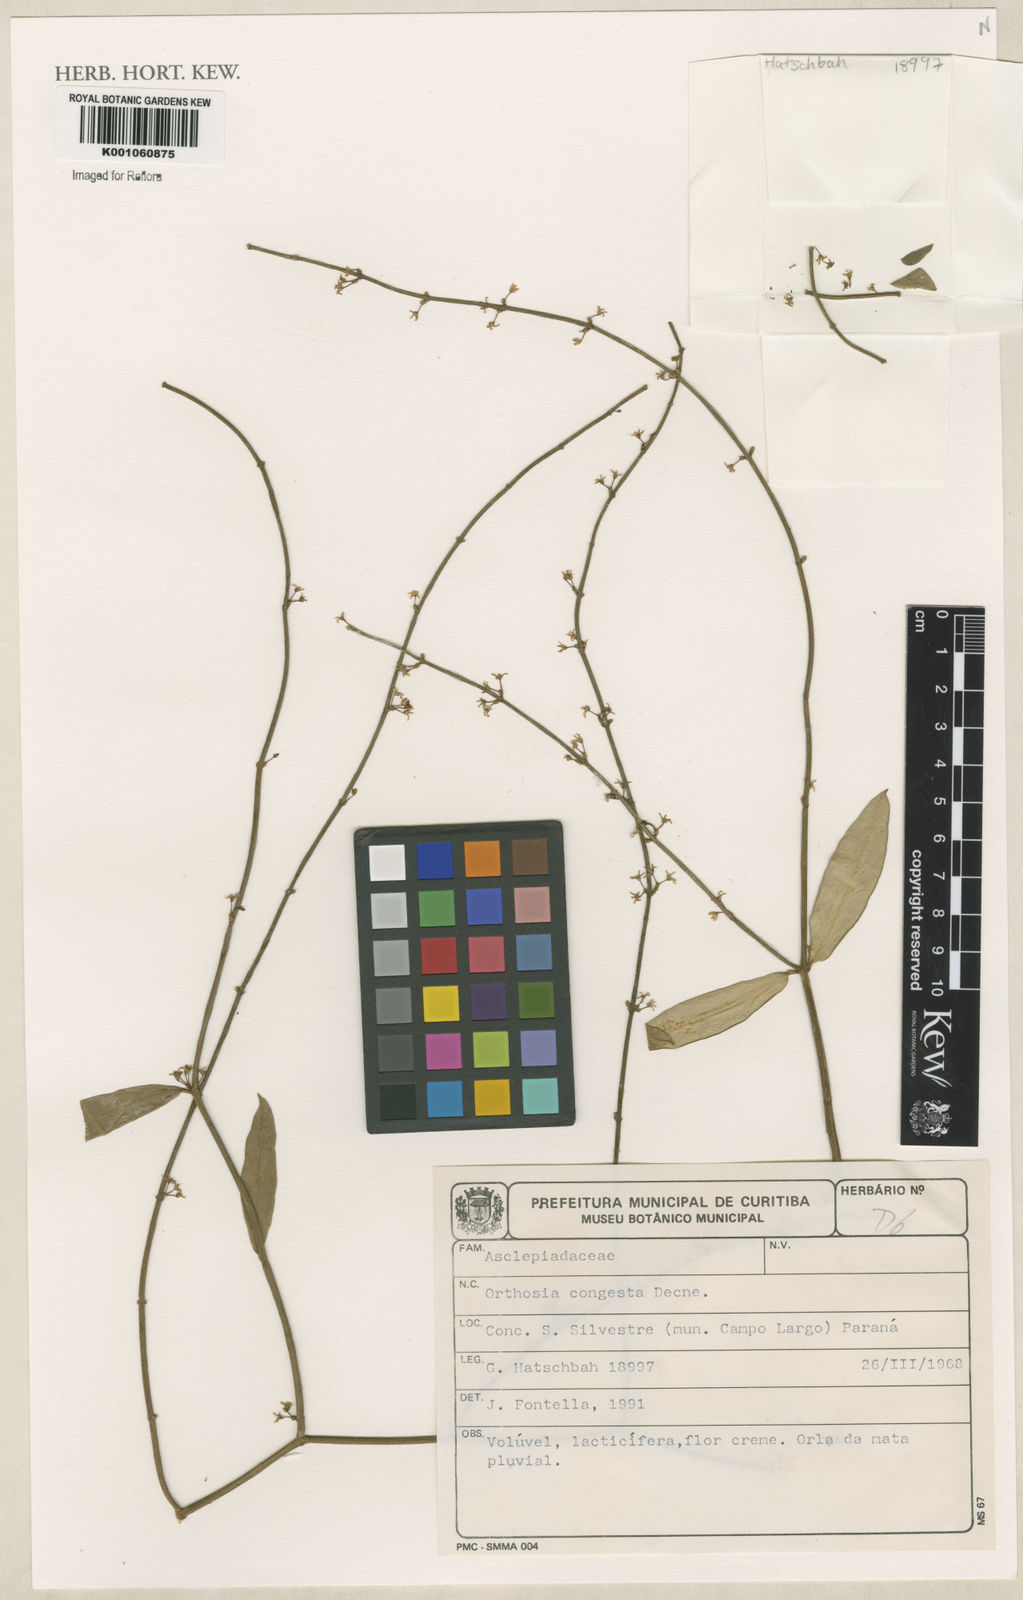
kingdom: Plantae
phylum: Tracheophyta
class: Magnoliopsida
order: Gentianales
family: Apocynaceae
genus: Orthosia
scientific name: Orthosia congesta
